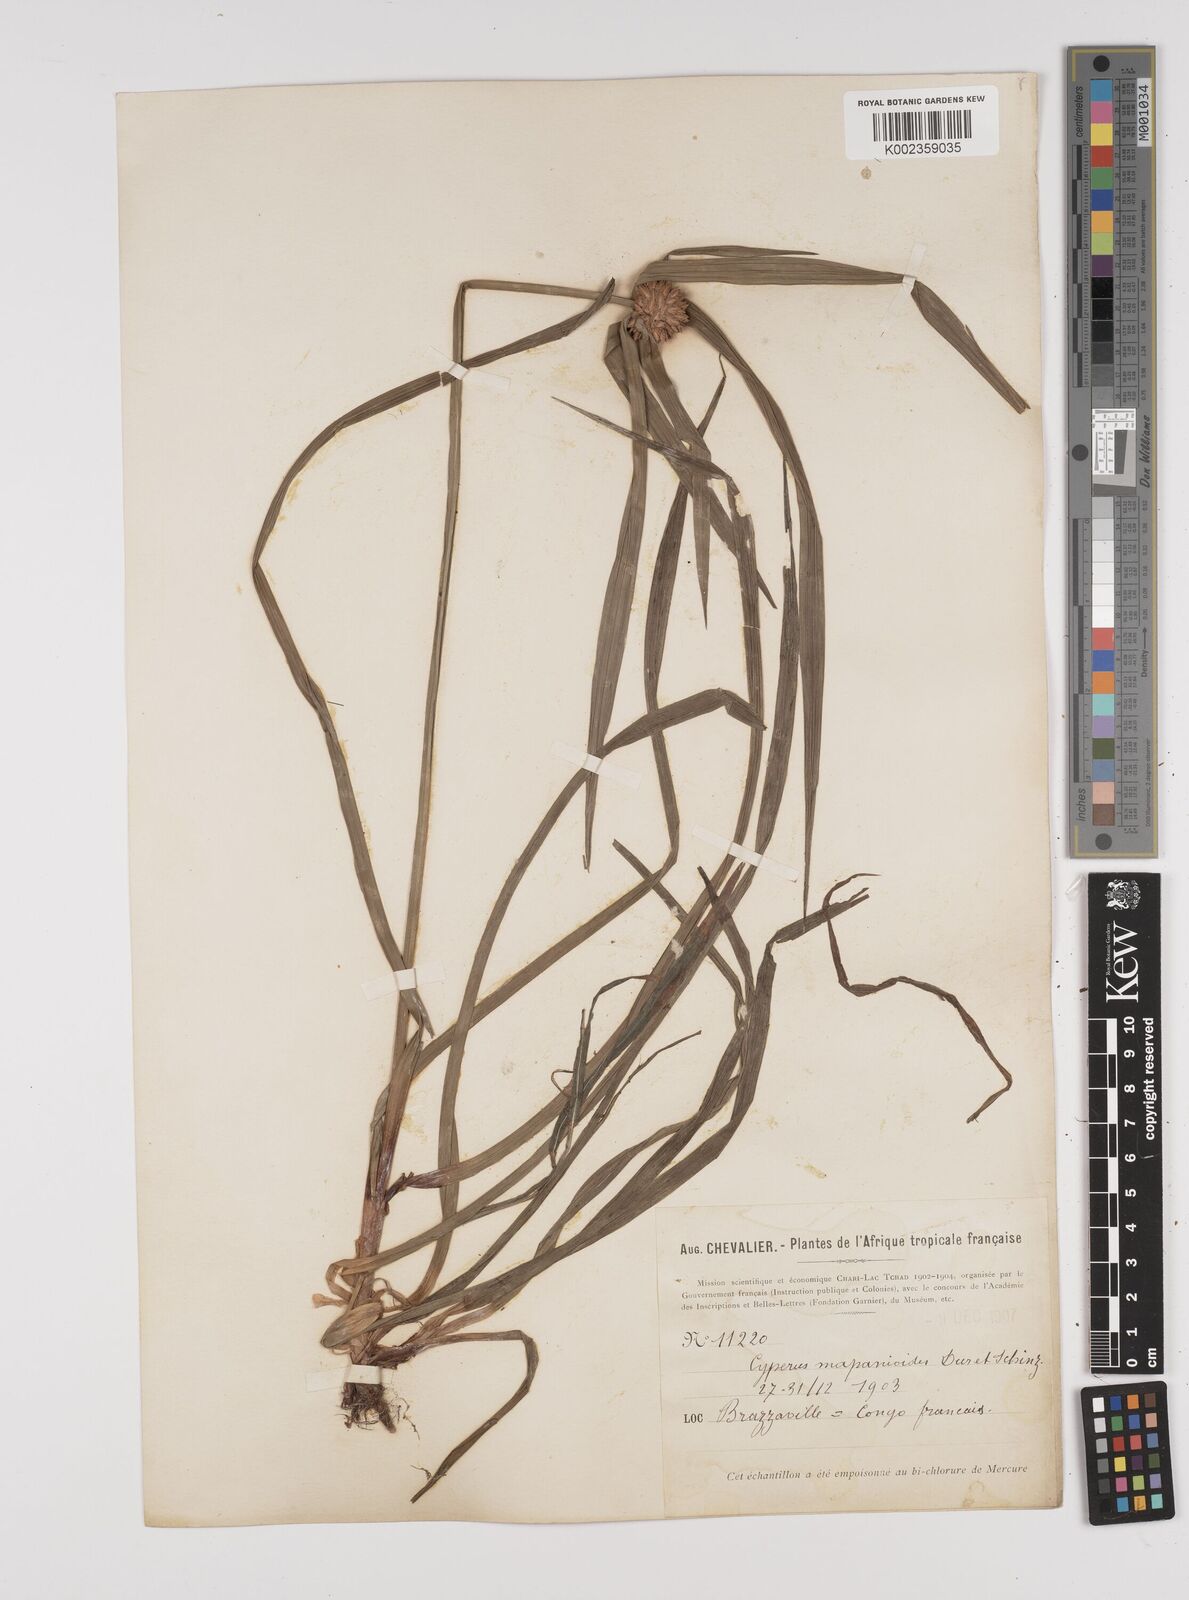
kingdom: Plantae
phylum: Tracheophyta
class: Liliopsida
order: Poales
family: Cyperaceae
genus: Cyperus
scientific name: Cyperus mapanioides
